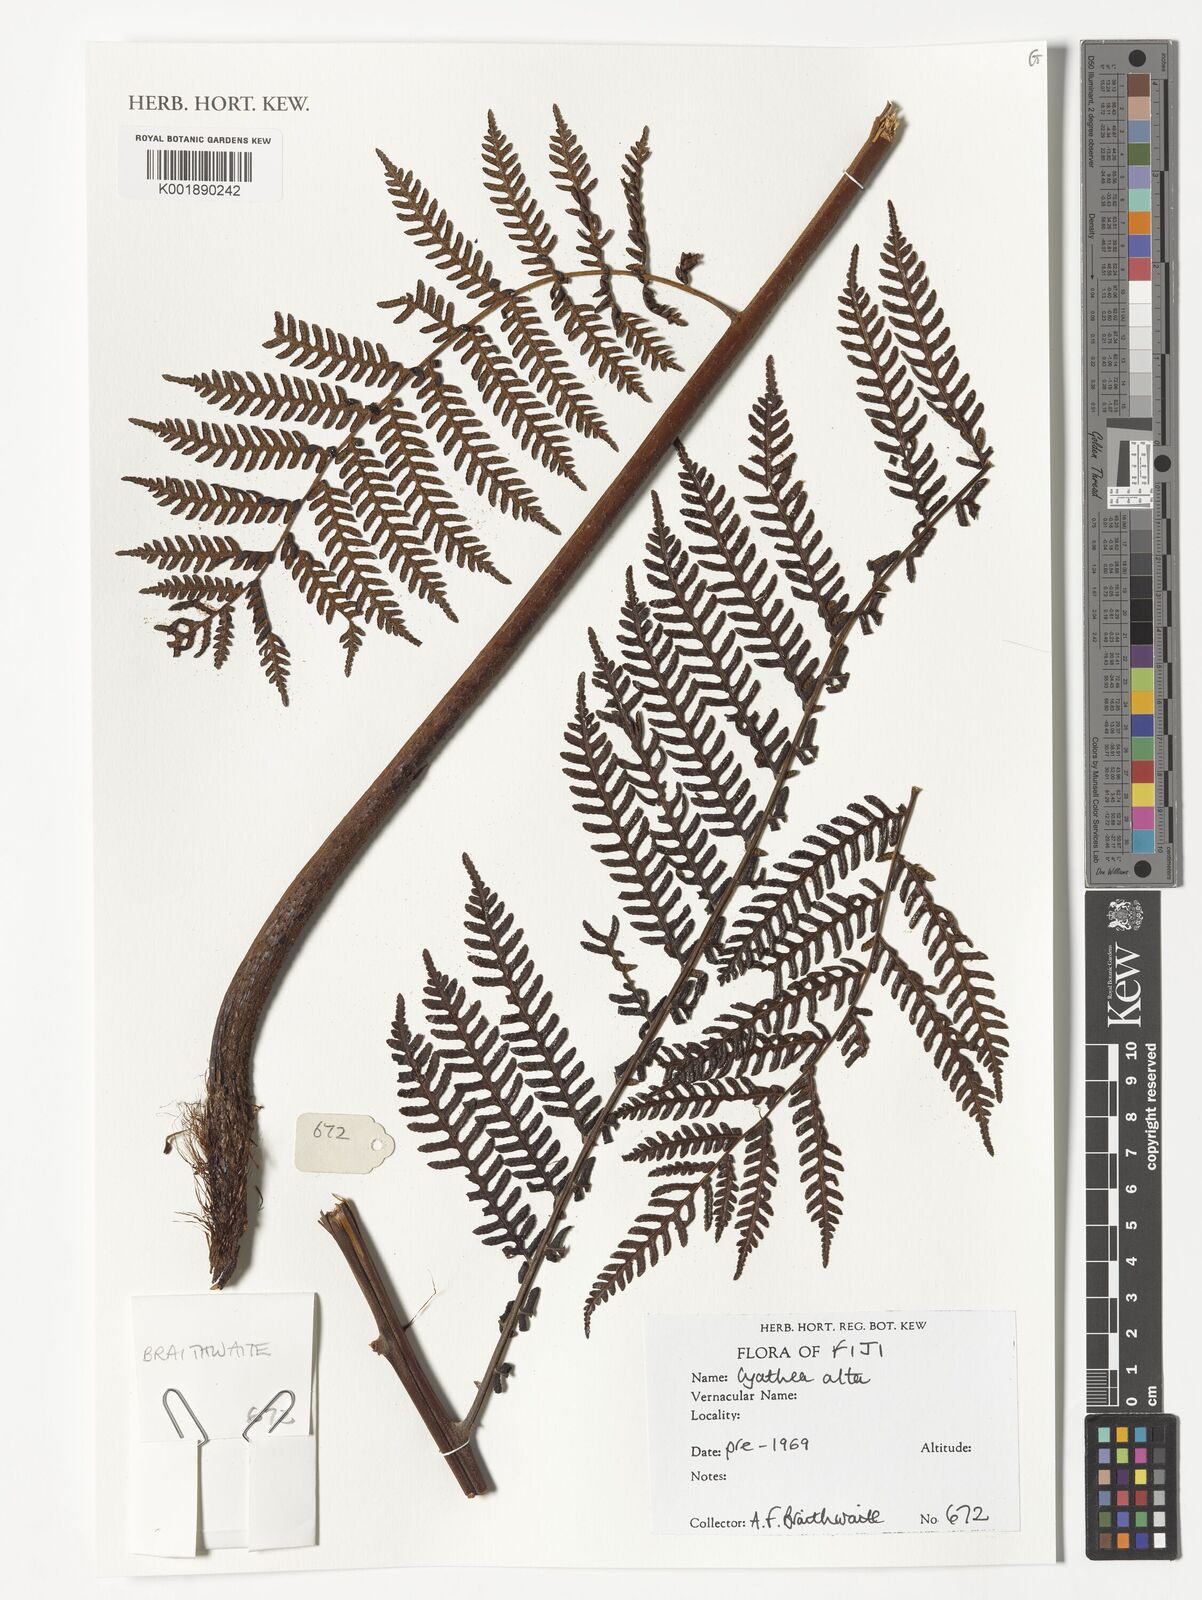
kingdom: Plantae
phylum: Tracheophyta
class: Polypodiopsida
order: Cyatheales
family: Cyatheaceae
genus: Alsophila
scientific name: Alsophila alta
